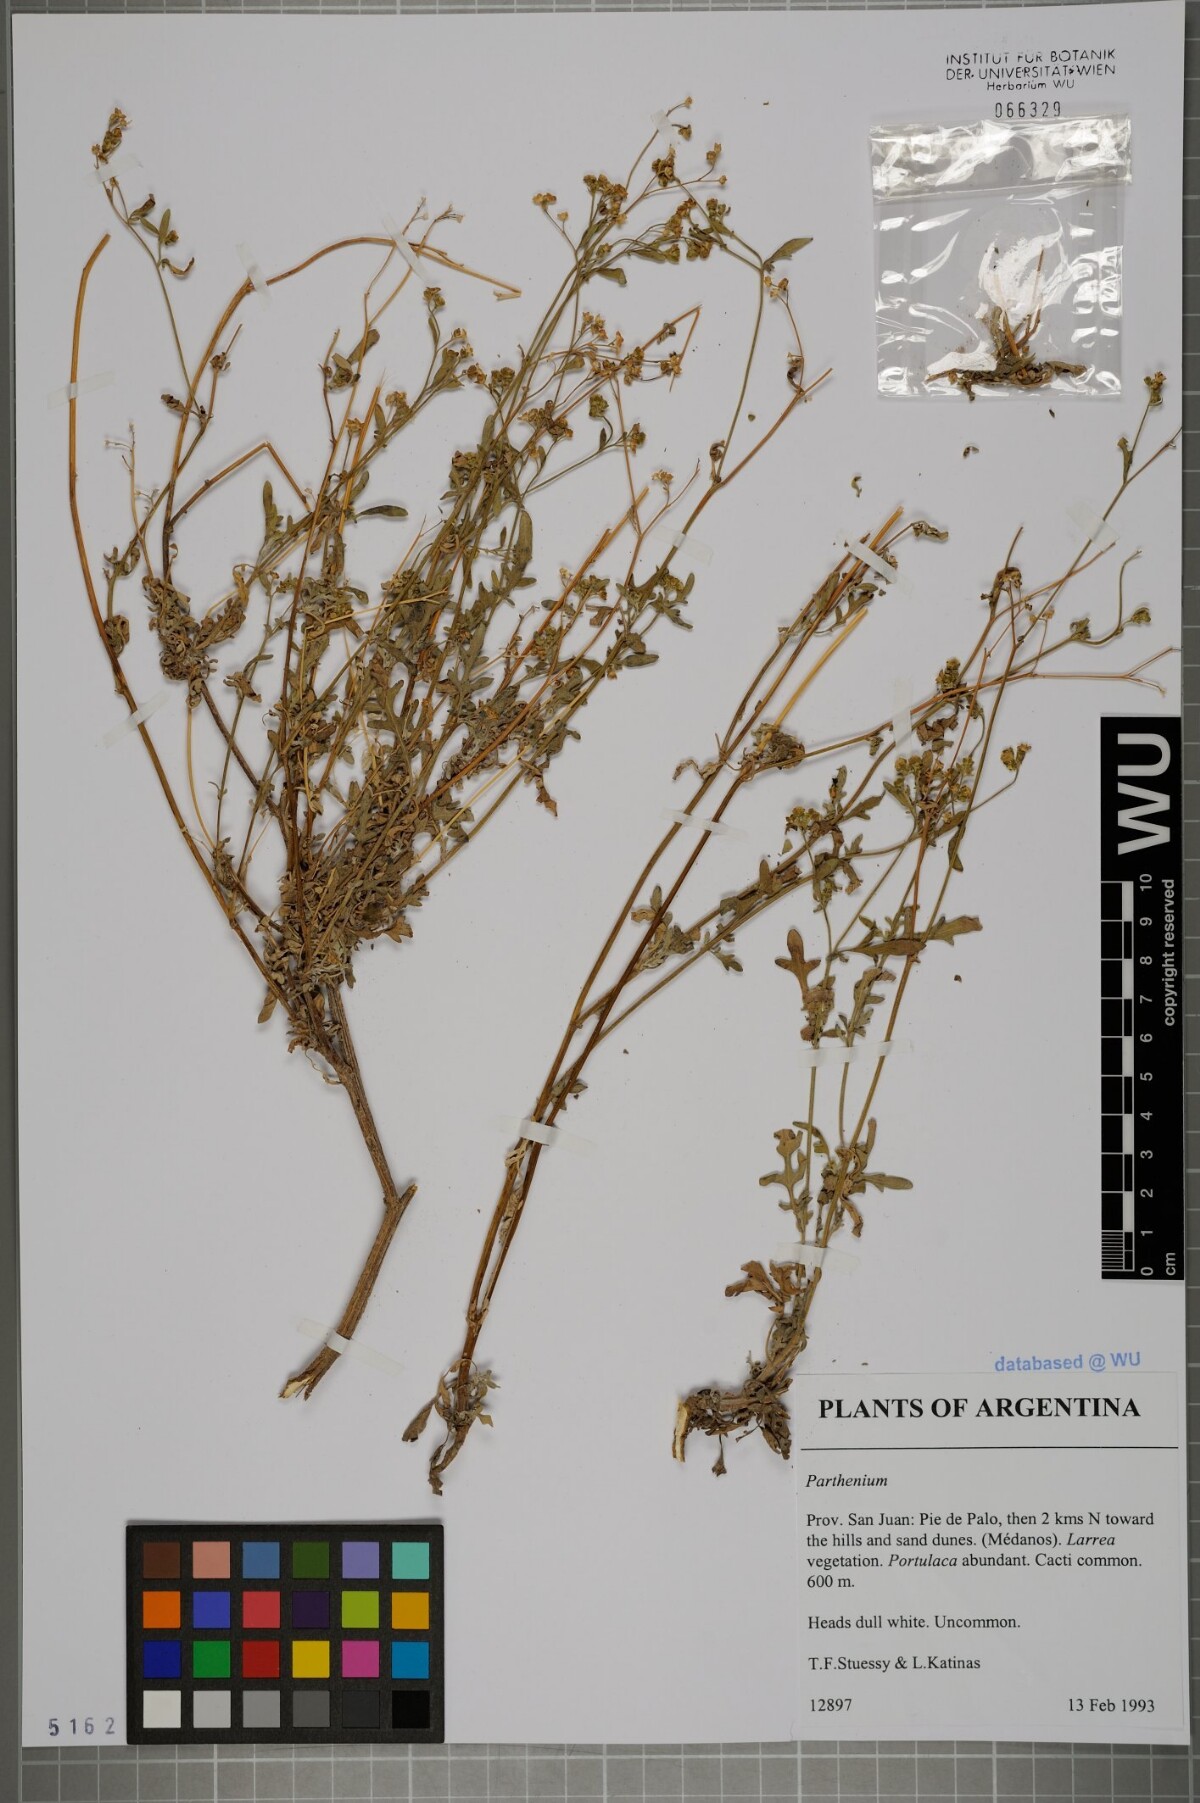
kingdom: Plantae
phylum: Tracheophyta
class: Magnoliopsida
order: Asterales
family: Asteraceae
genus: Parthenium
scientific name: Parthenium
